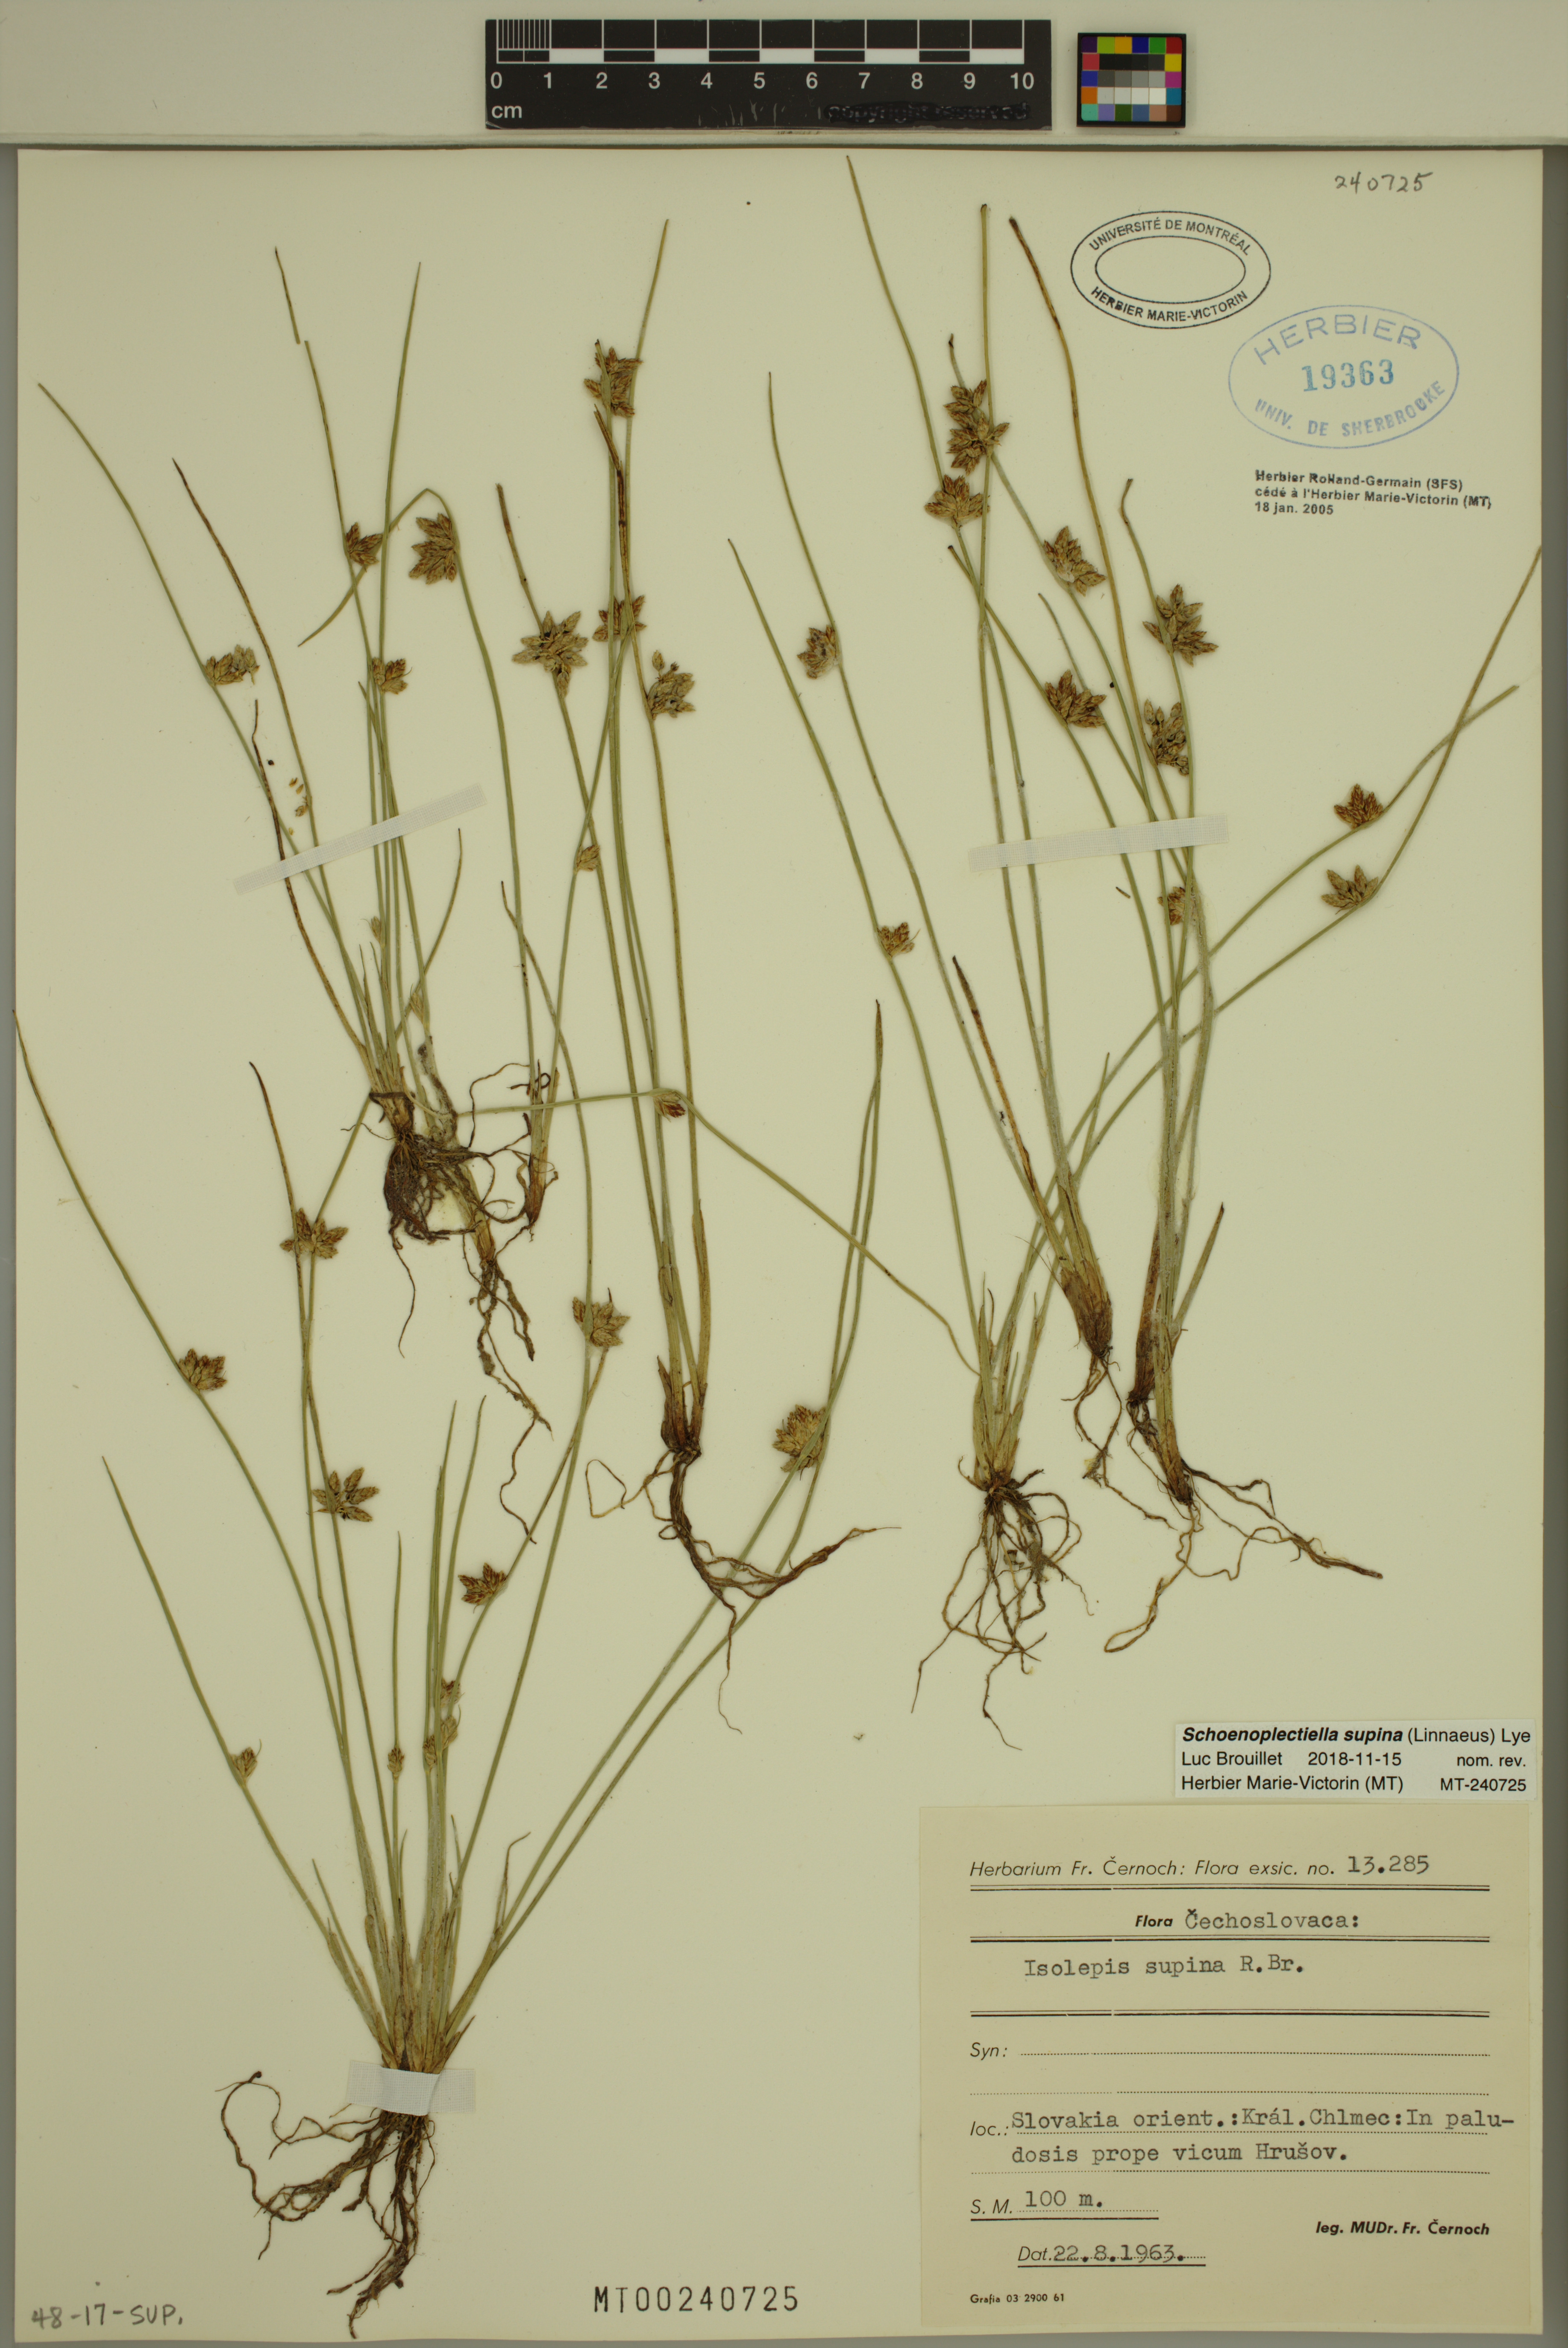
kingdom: Plantae
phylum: Tracheophyta
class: Liliopsida
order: Poales
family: Cyperaceae
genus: Schoenoplectiella
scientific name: Schoenoplectiella supina
